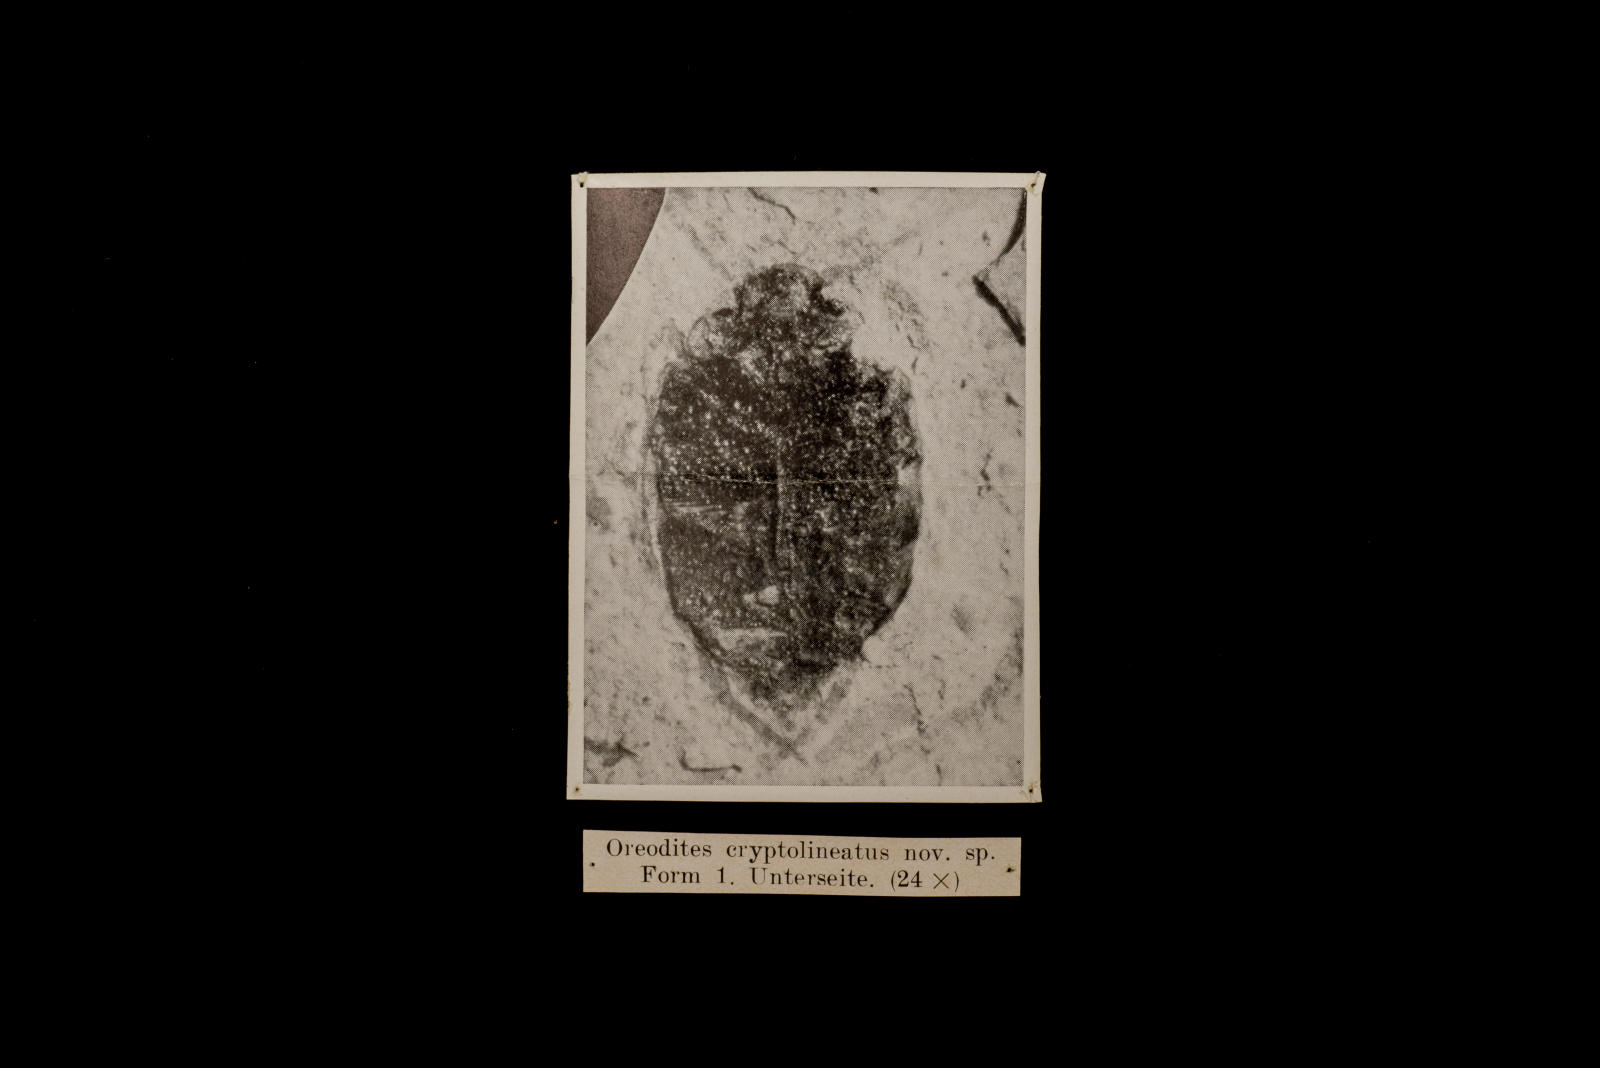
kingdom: Animalia
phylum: Arthropoda
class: Insecta
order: Coleoptera
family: Dytiscidae
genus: Oreodytes
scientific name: Oreodytes cryptolineatus
